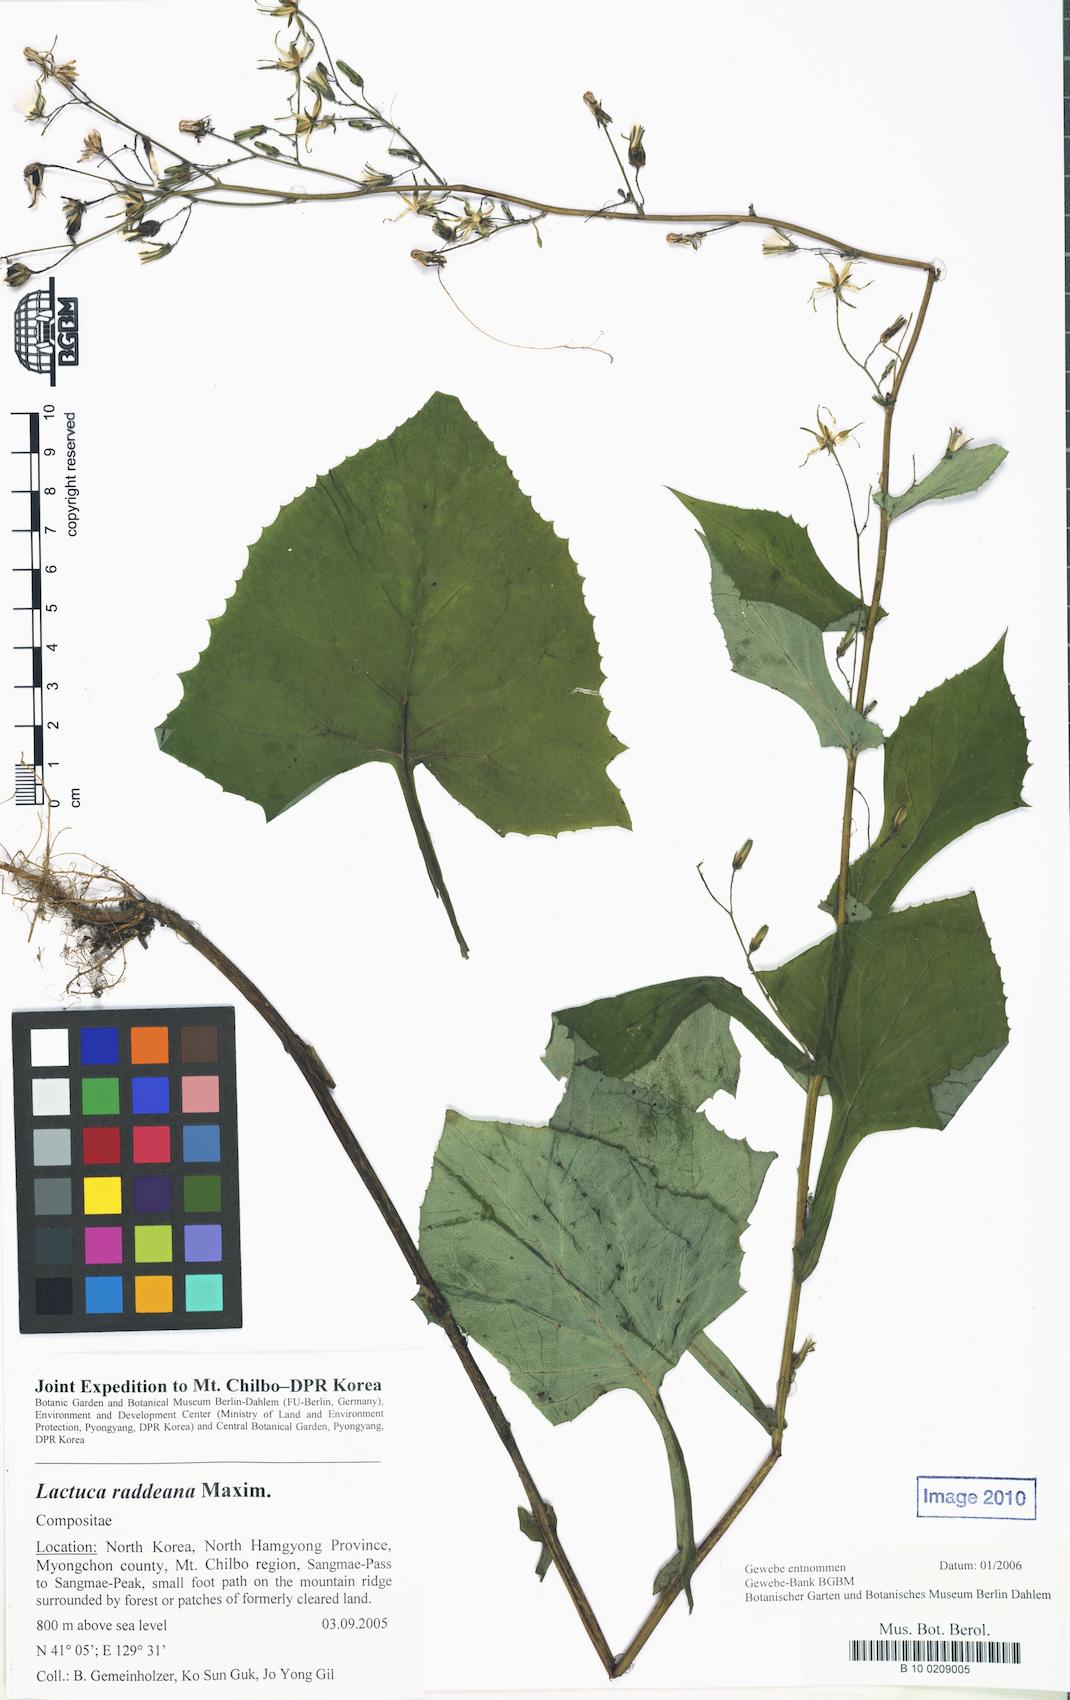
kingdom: Plantae
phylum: Tracheophyta
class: Magnoliopsida
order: Asterales
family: Asteraceae
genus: Lactuca
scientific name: Lactuca raddeana
